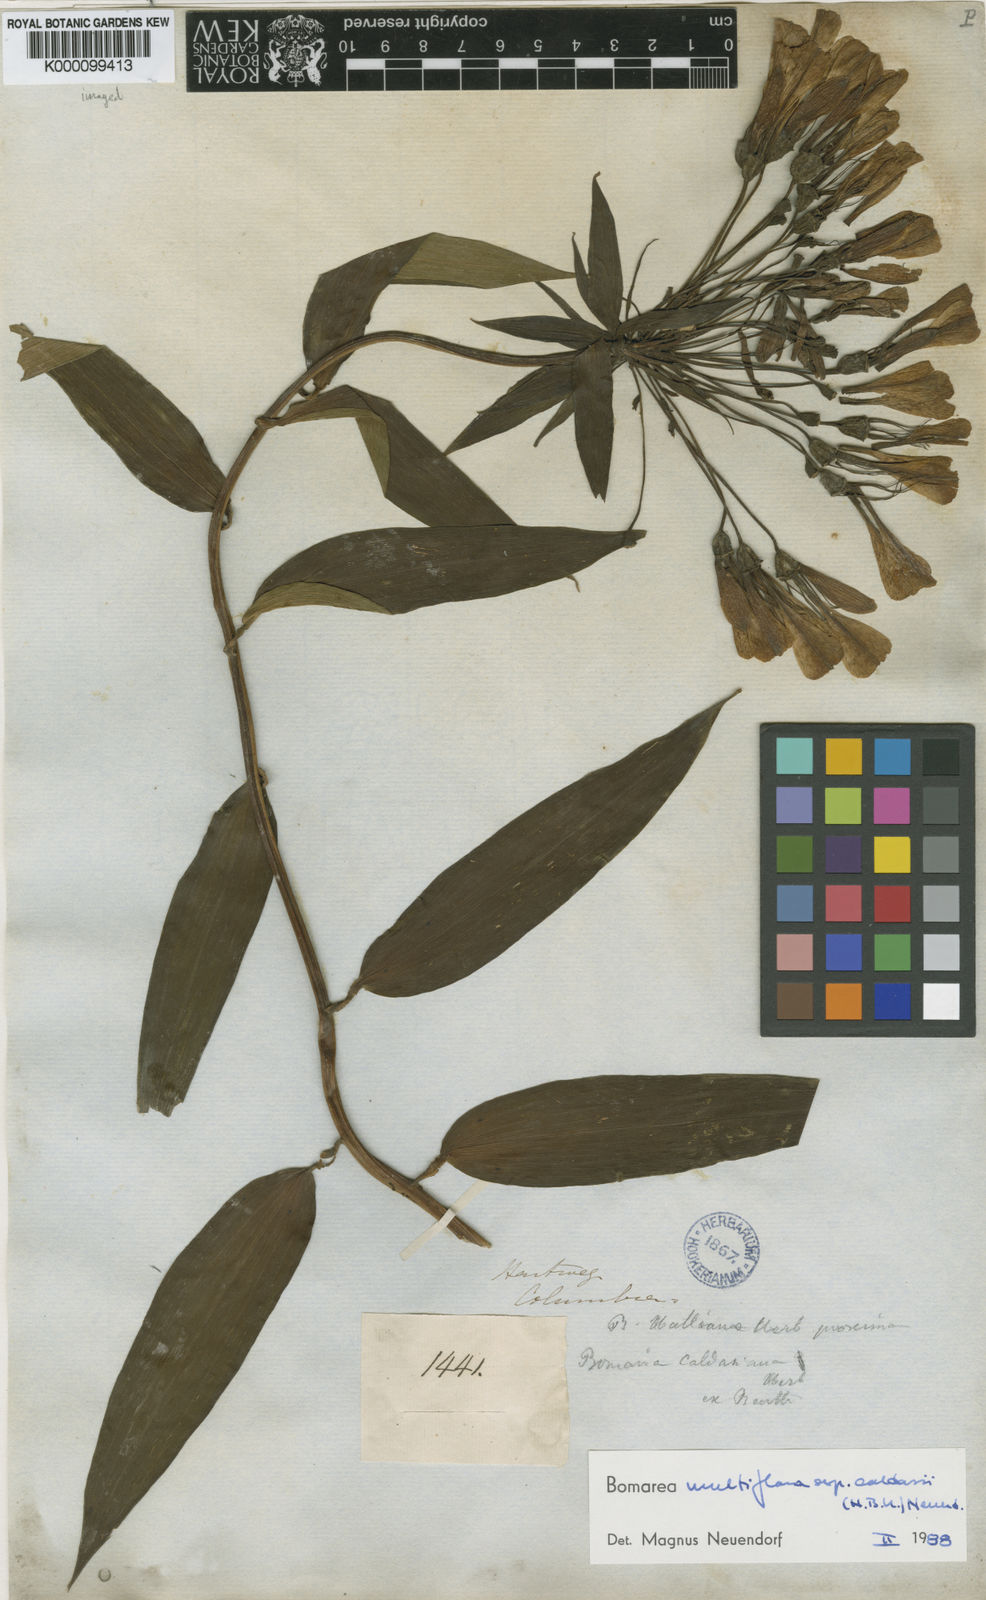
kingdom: Plantae
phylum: Tracheophyta
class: Liliopsida
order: Liliales
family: Alstroemeriaceae
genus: Bomarea
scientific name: Bomarea multiflora
